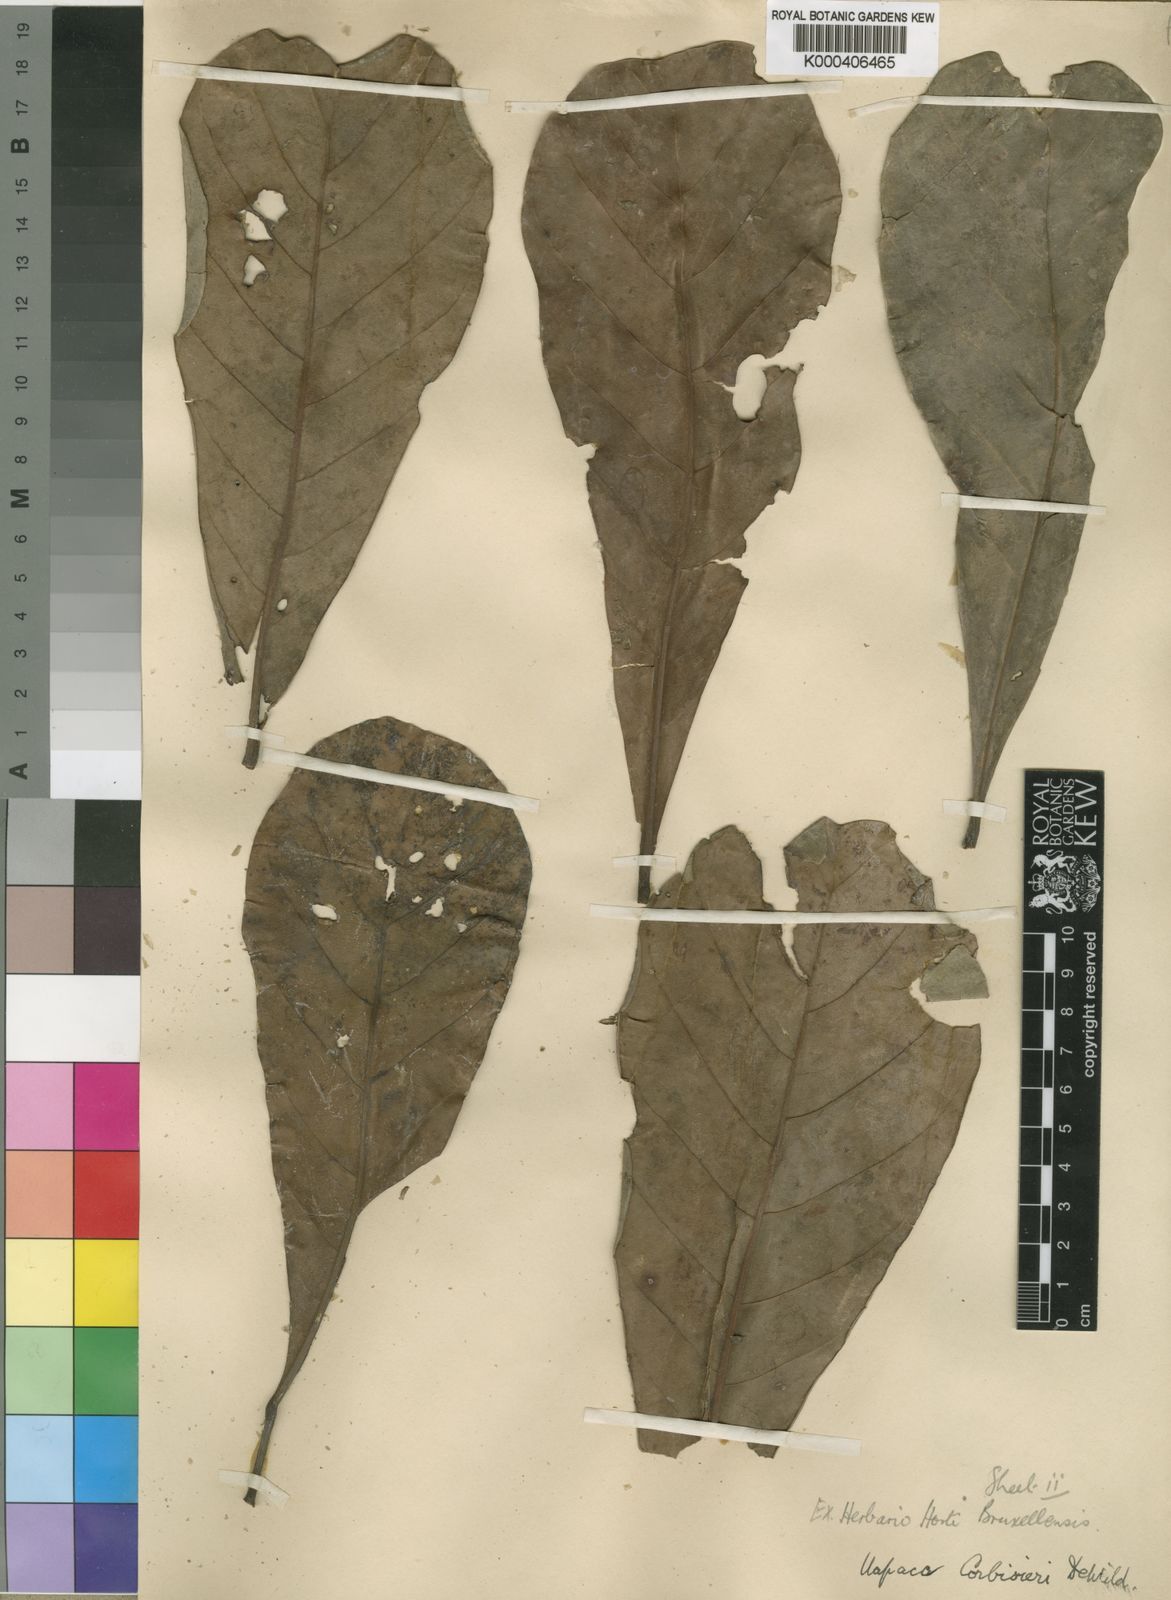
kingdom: Plantae
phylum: Tracheophyta
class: Magnoliopsida
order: Malpighiales
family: Phyllanthaceae
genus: Uapaca
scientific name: Uapaca pynaertii
